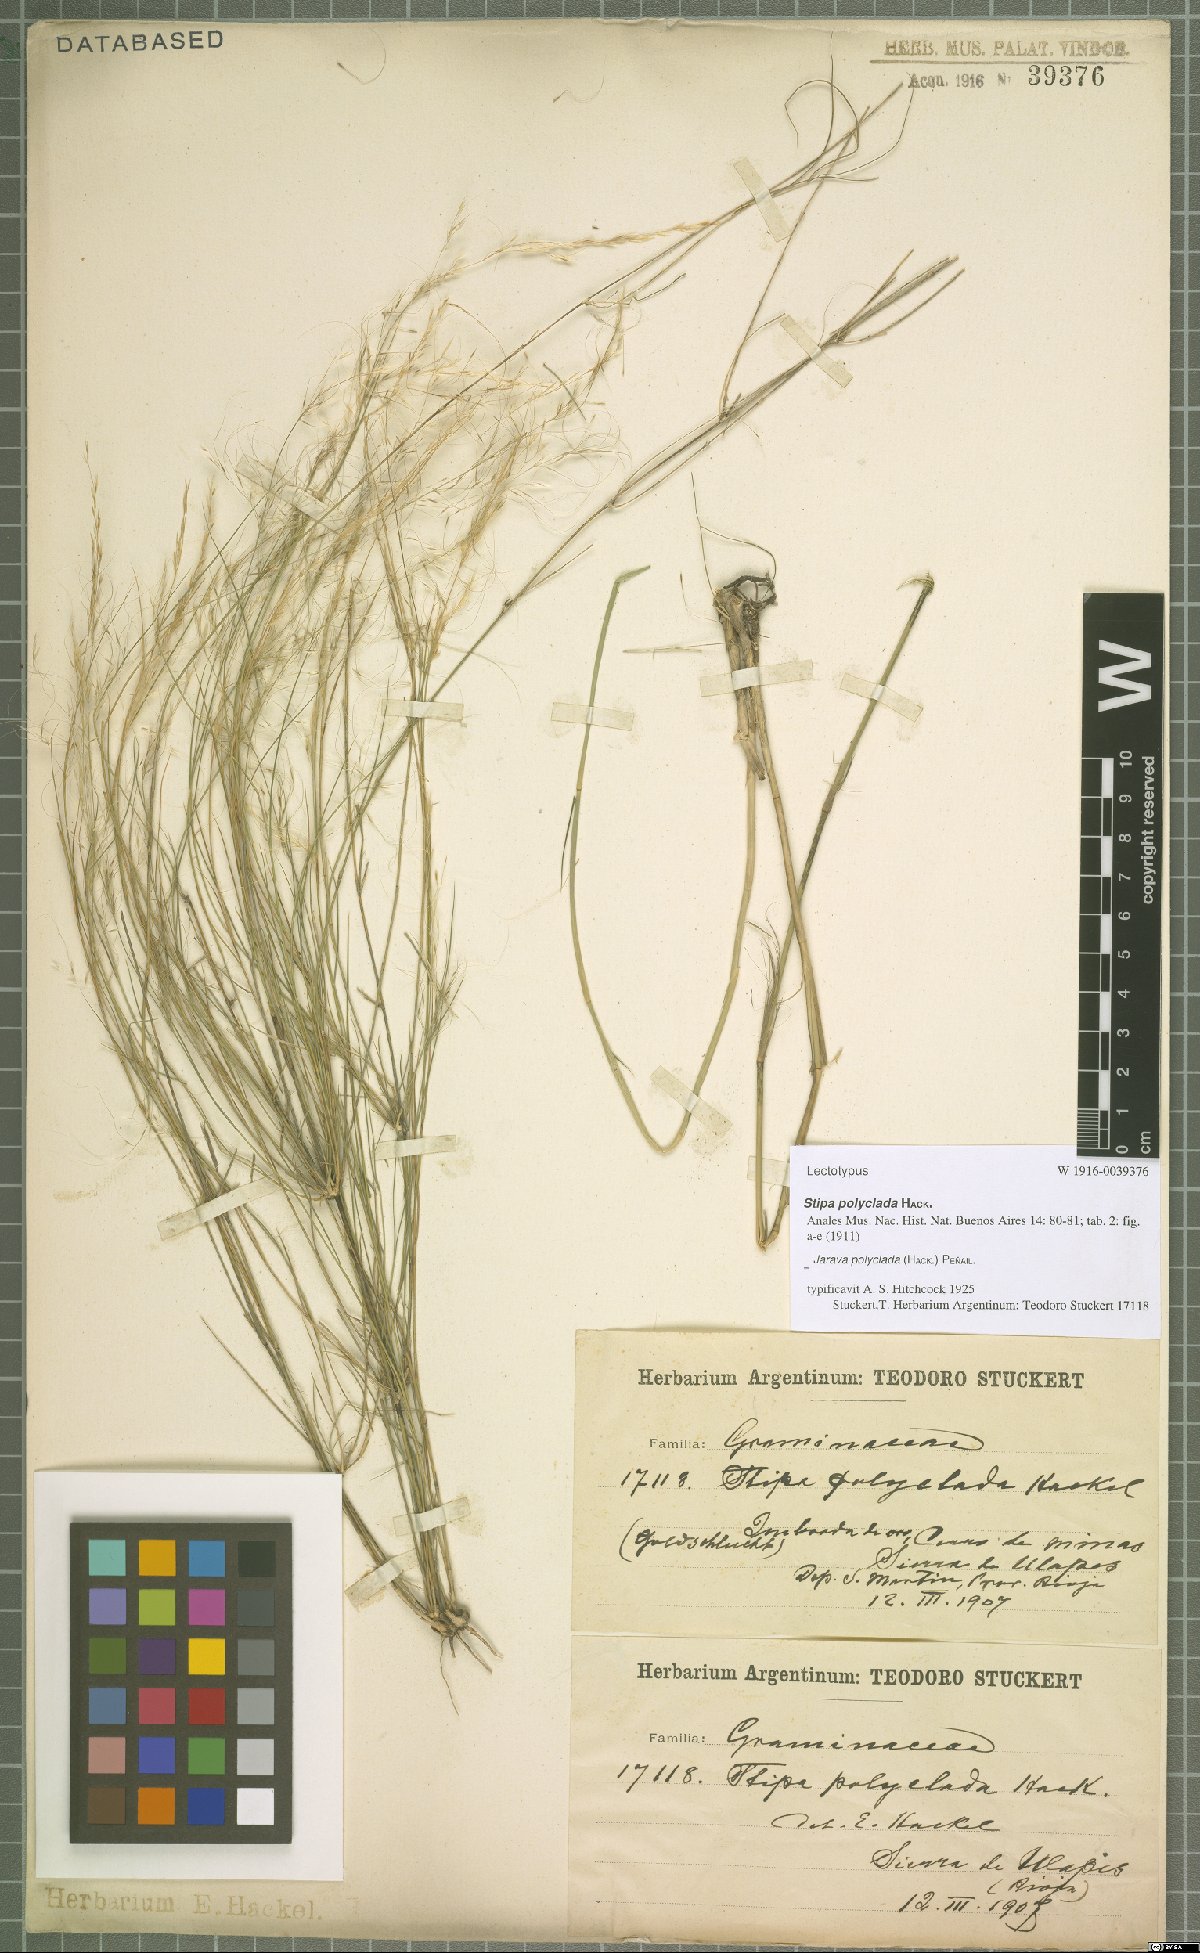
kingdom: Plantae
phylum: Tracheophyta
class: Liliopsida
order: Poales
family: Poaceae
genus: Stipa
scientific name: Stipa polyclada
